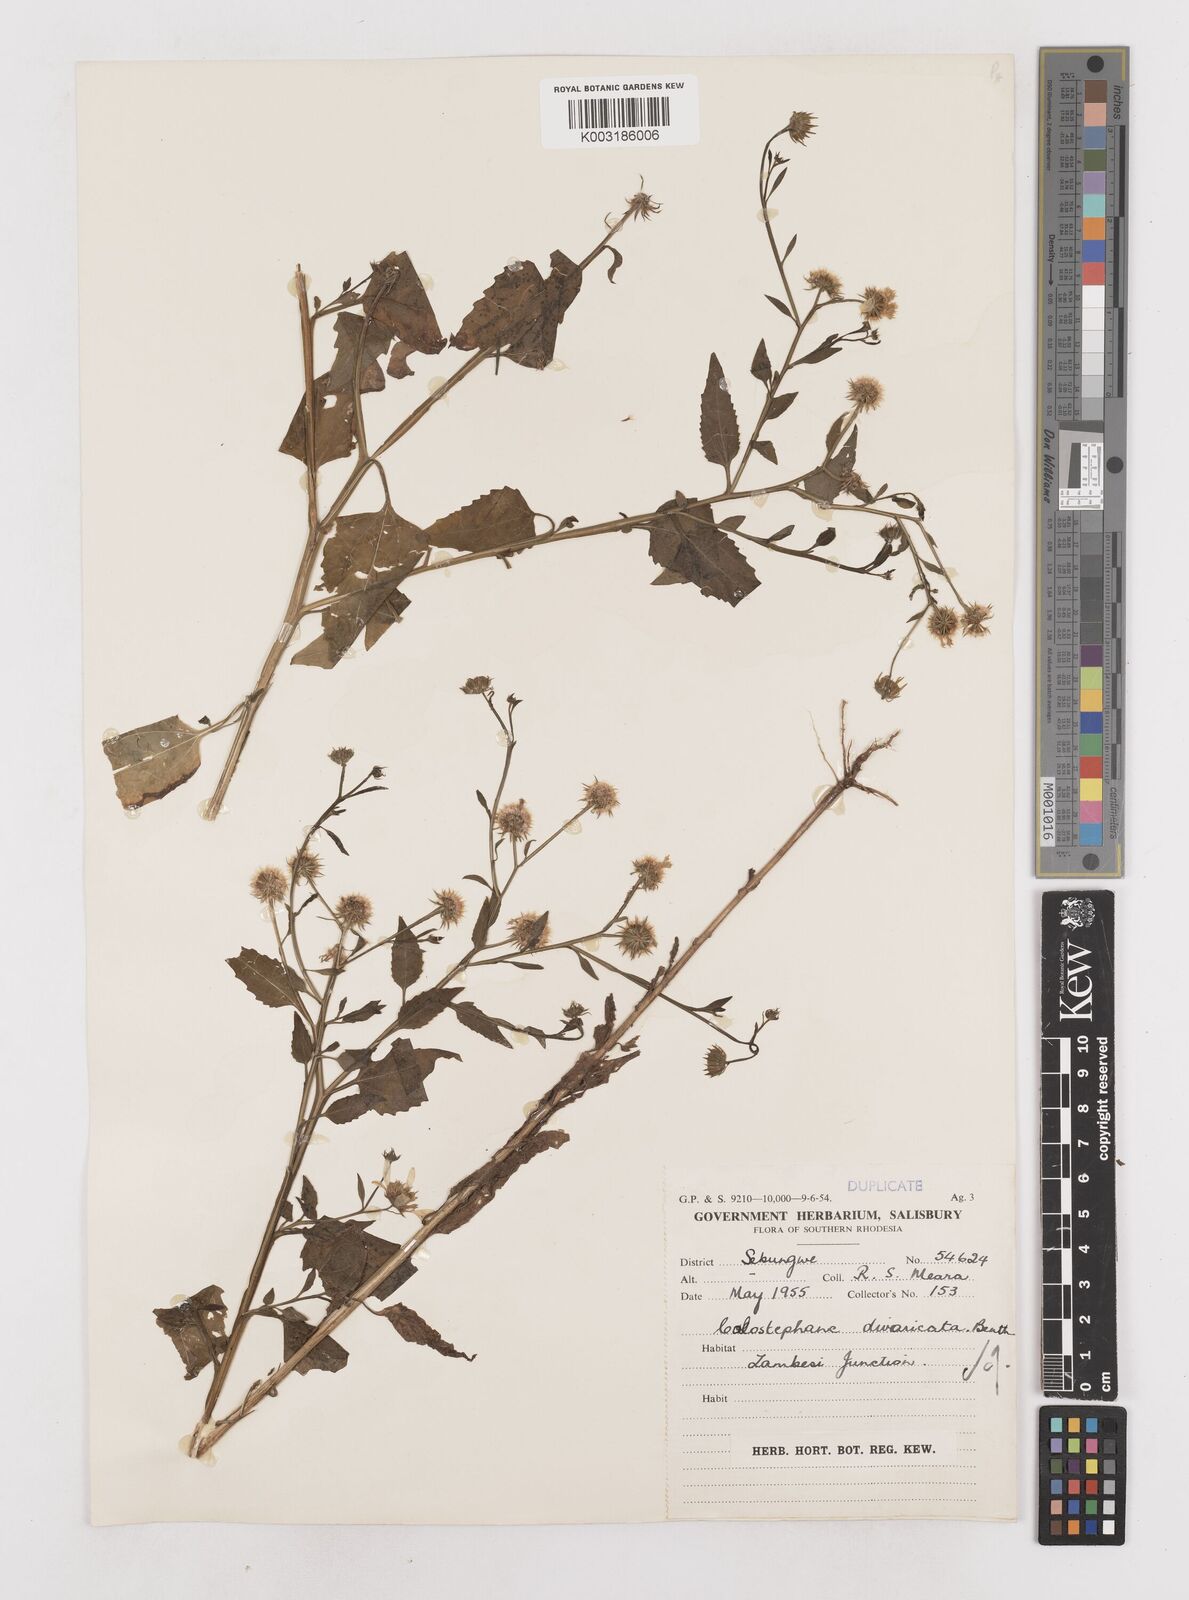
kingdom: Plantae
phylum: Tracheophyta
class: Magnoliopsida
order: Asterales
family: Asteraceae
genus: Calostephane
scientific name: Calostephane divaricata
